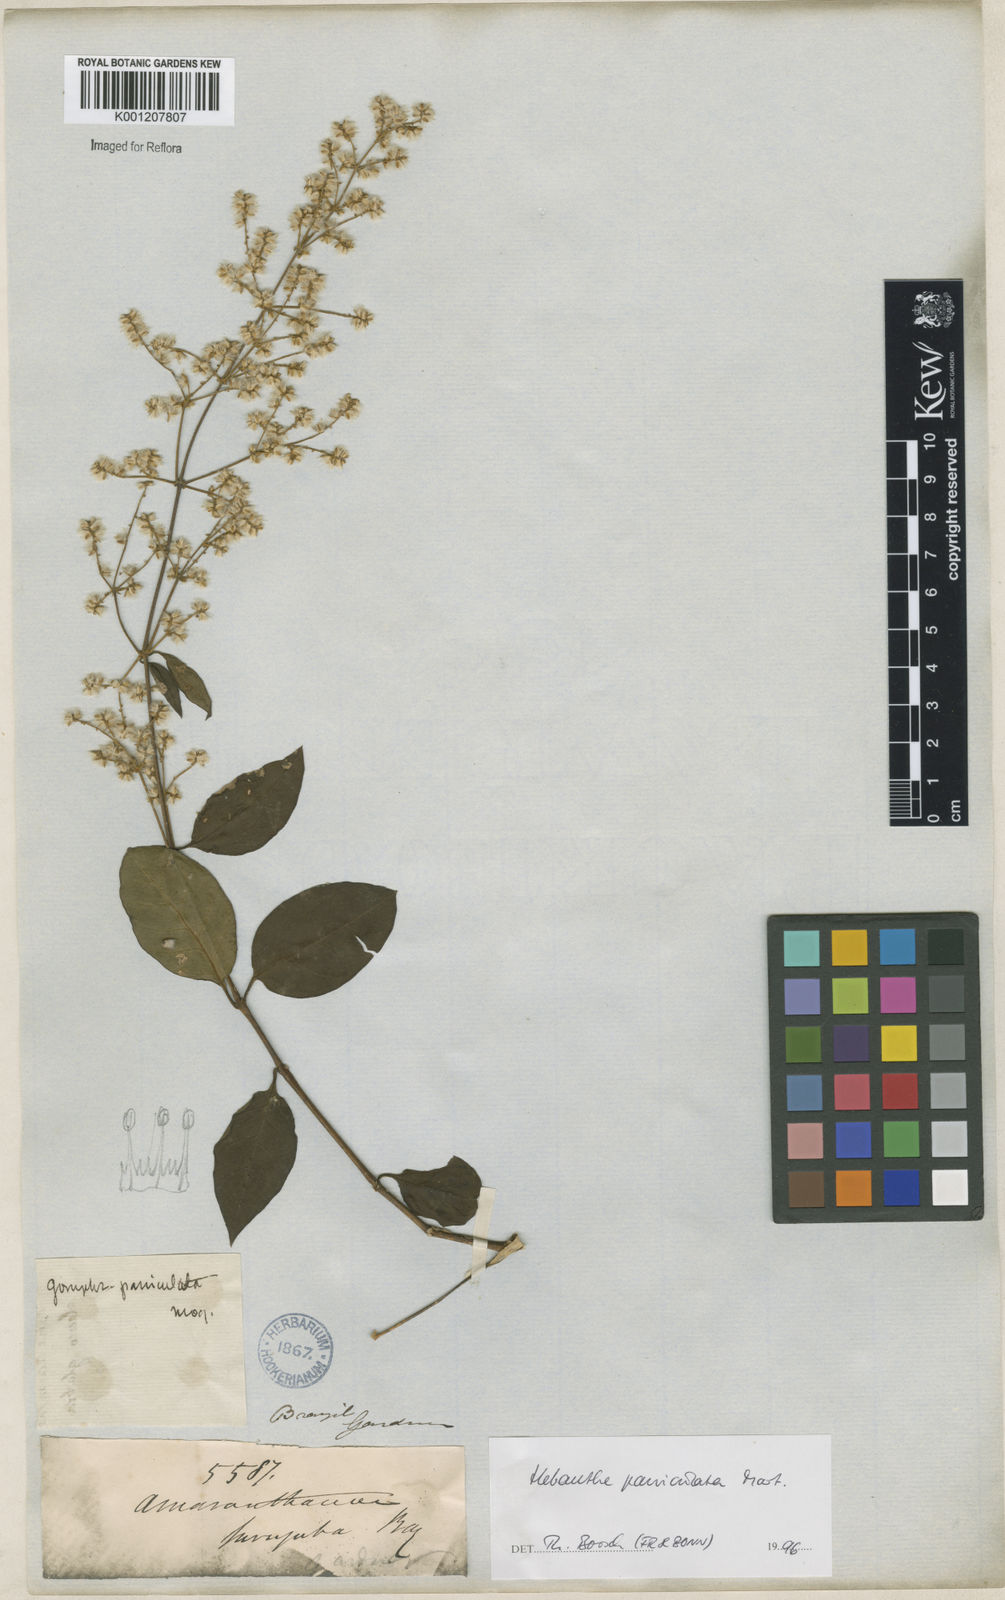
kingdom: Plantae
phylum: Tracheophyta
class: Magnoliopsida
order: Caryophyllales
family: Amaranthaceae
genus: Hebanthe
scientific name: Hebanthe erianthos
